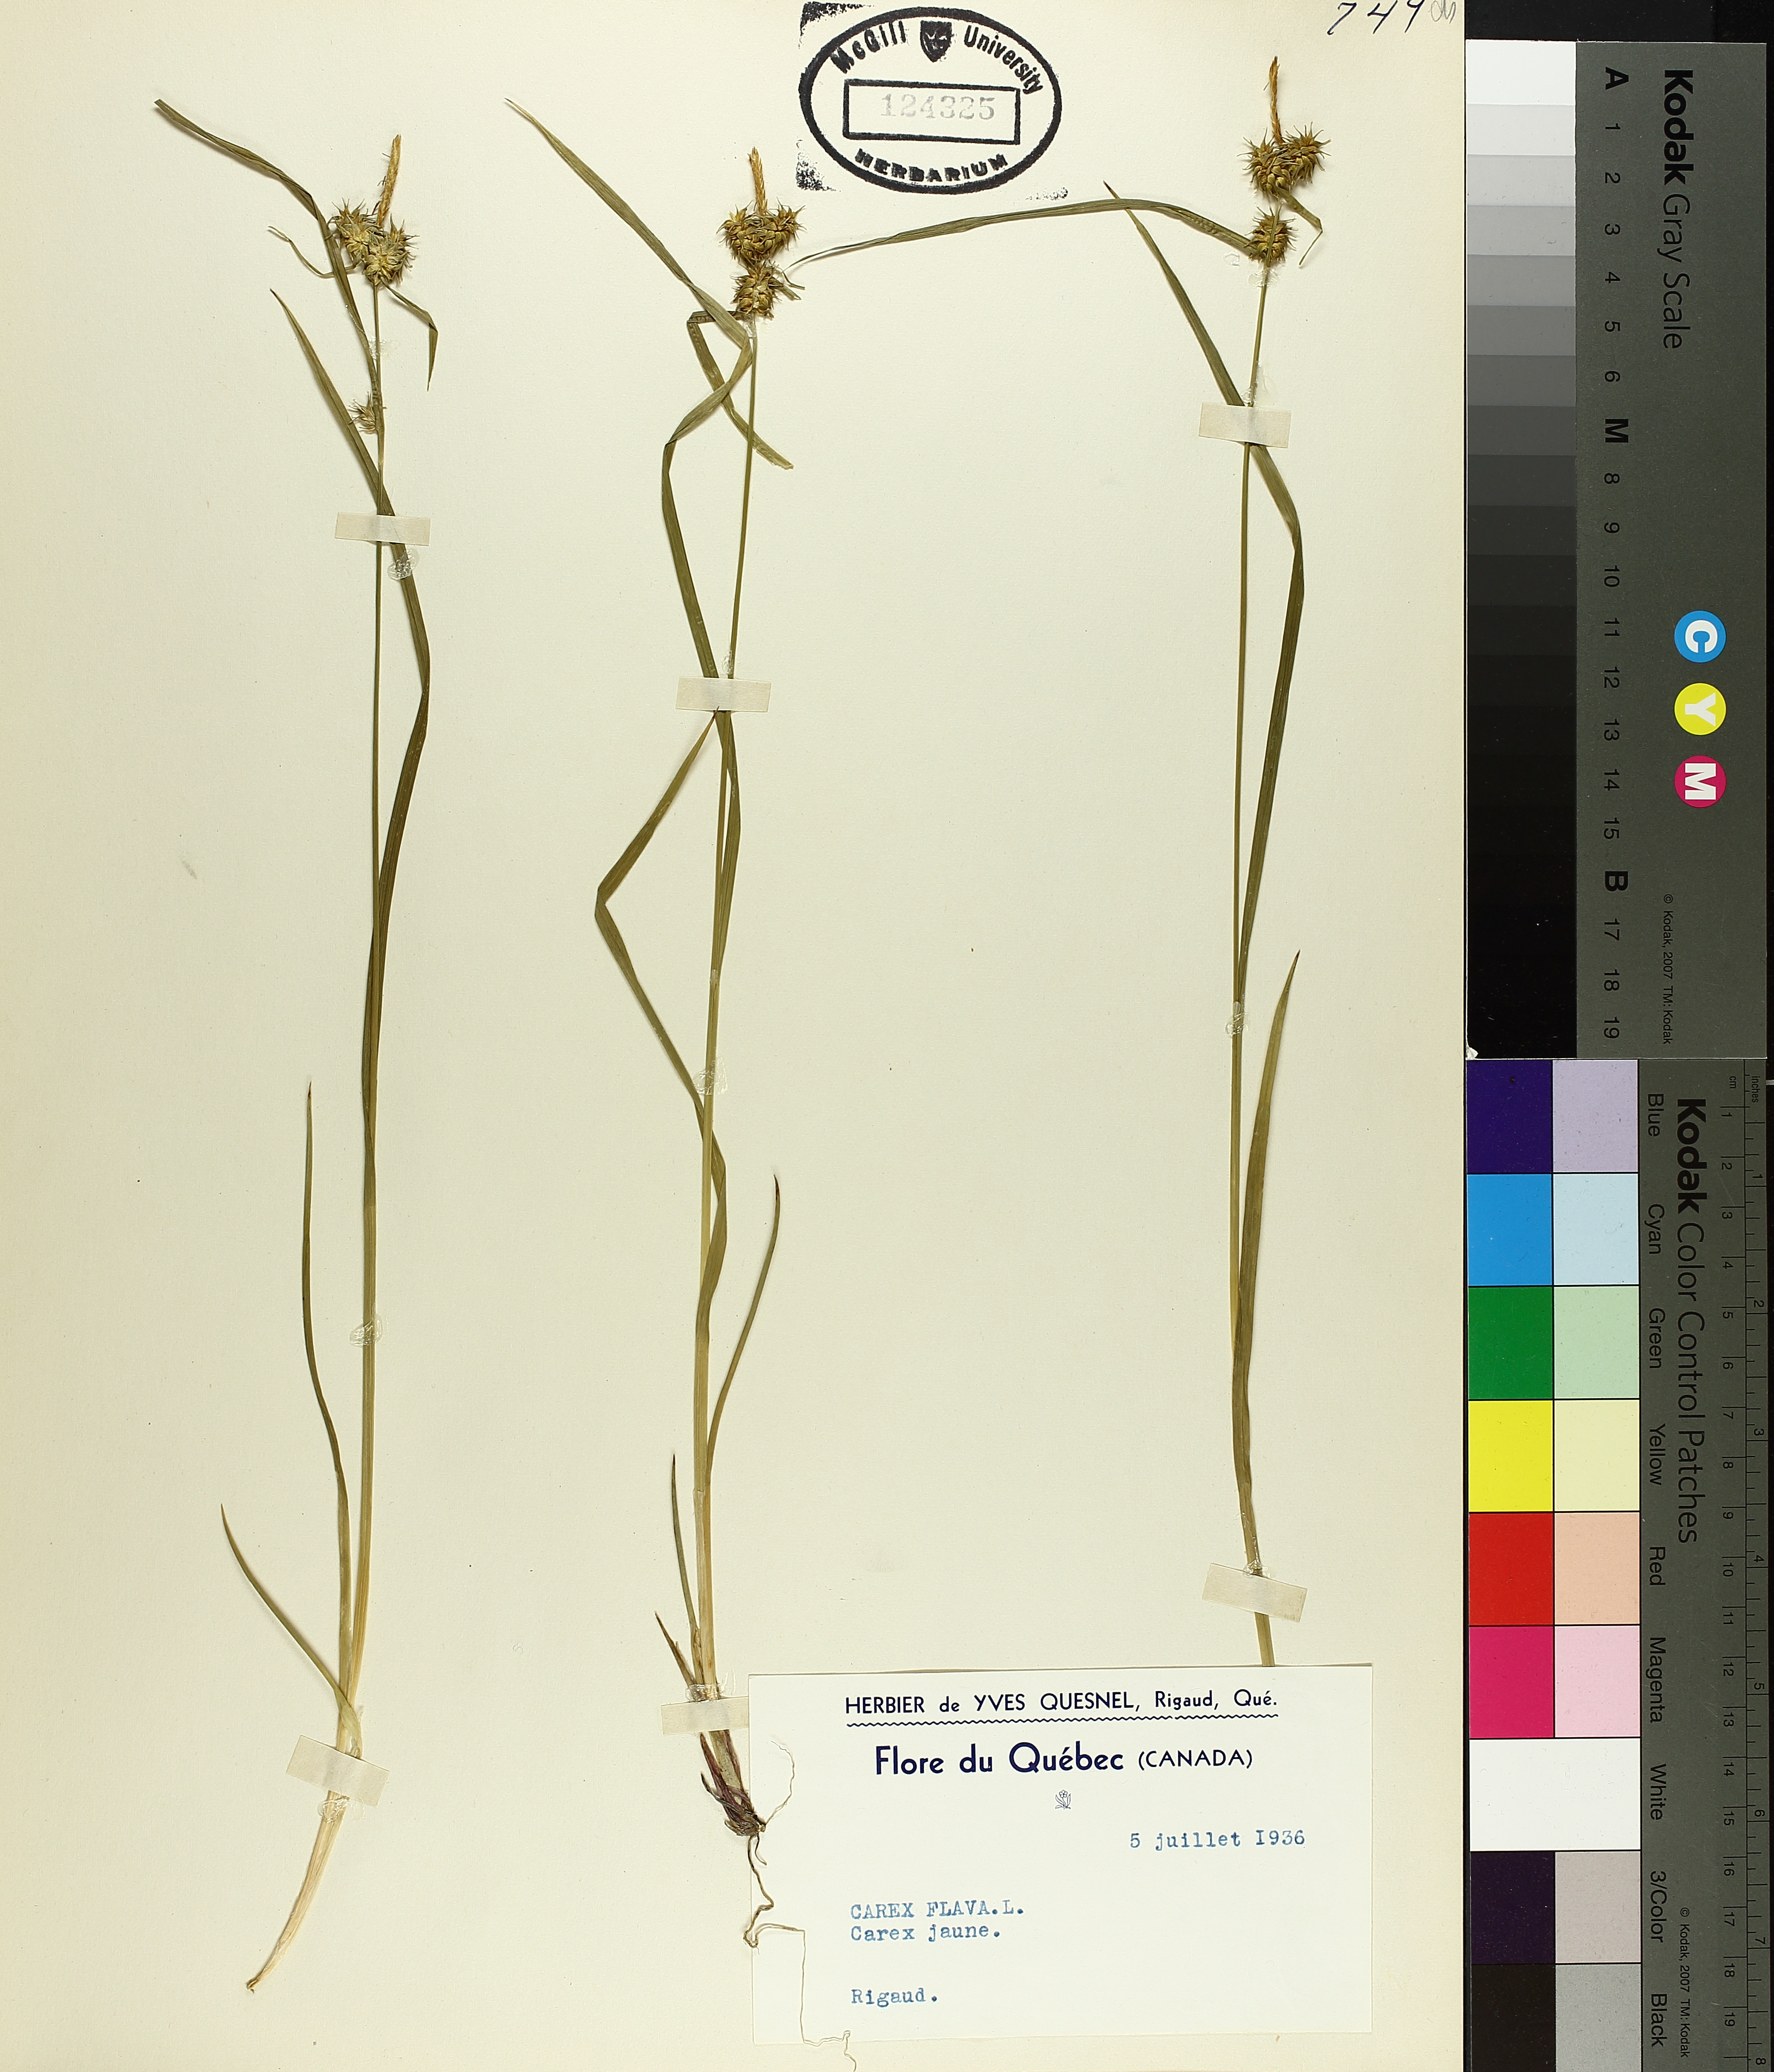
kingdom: Plantae
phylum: Tracheophyta
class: Liliopsida
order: Poales
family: Cyperaceae
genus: Carex
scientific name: Carex flava
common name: Large yellow-sedge
